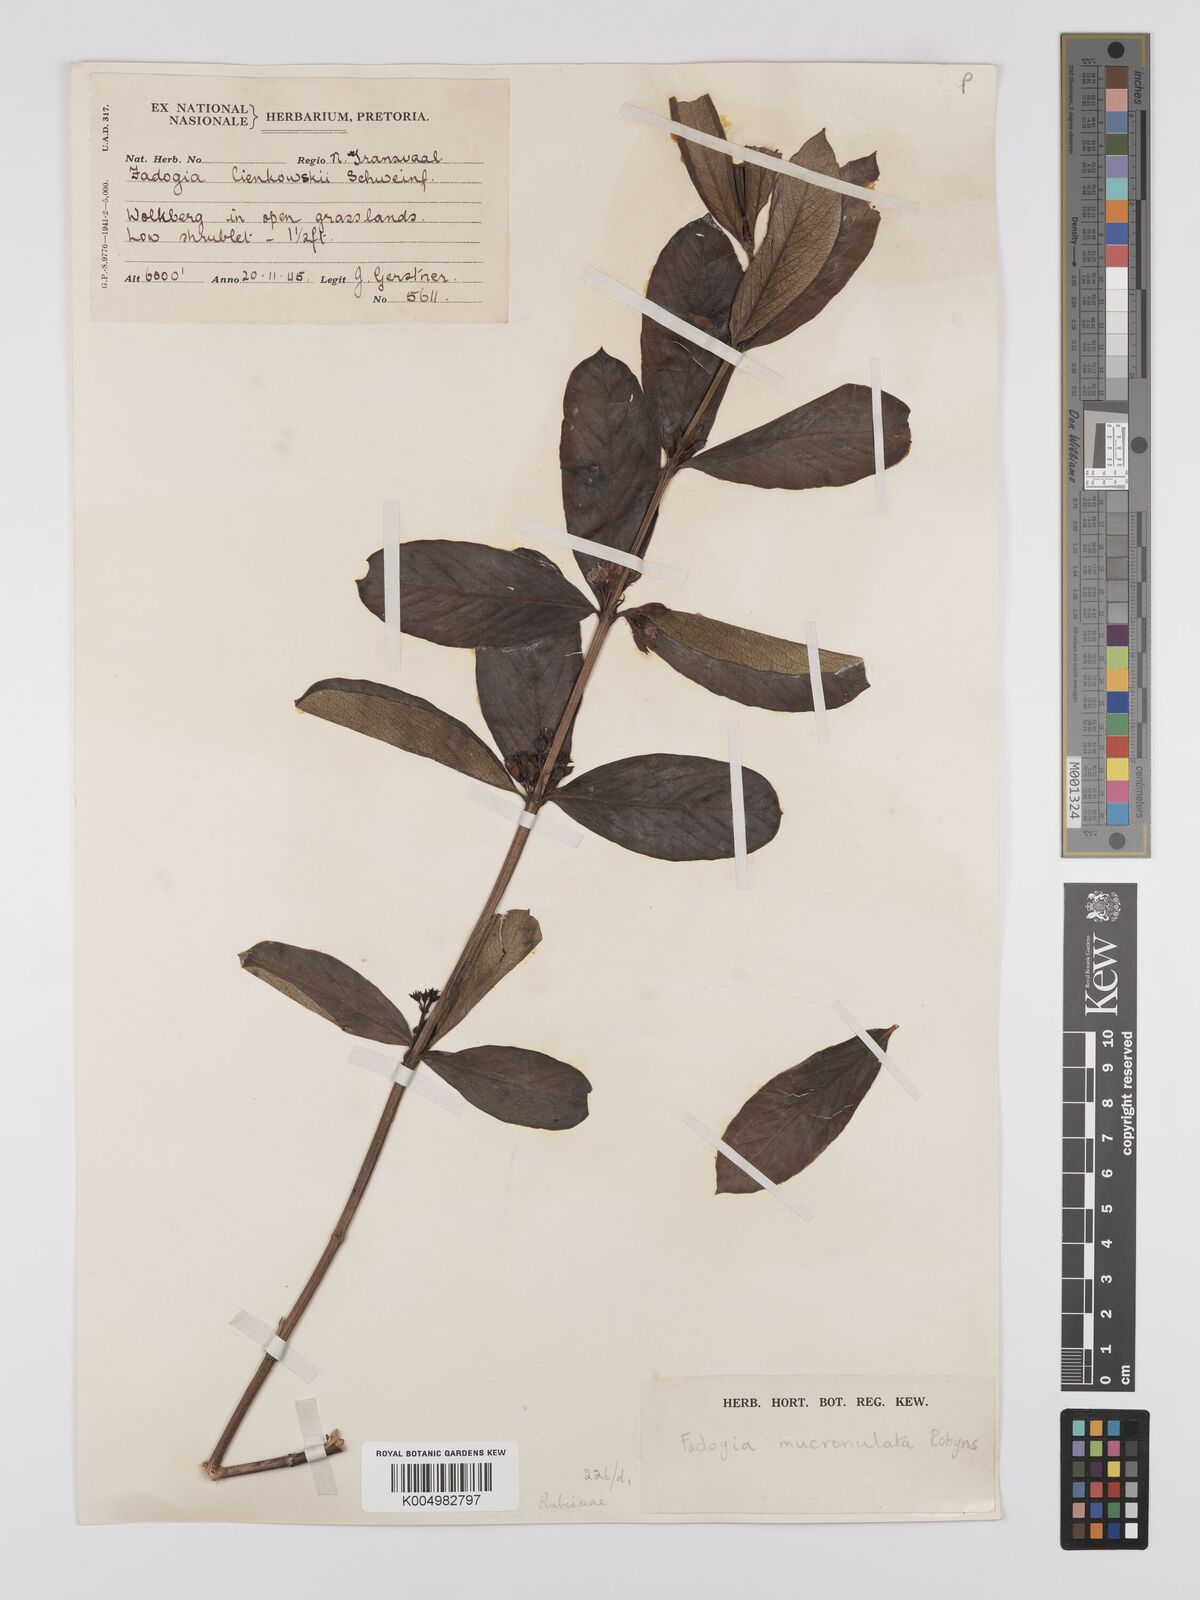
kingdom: Plantae
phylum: Tracheophyta
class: Magnoliopsida
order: Gentianales
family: Rubiaceae
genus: Fadogia
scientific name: Fadogia tetraquetra
